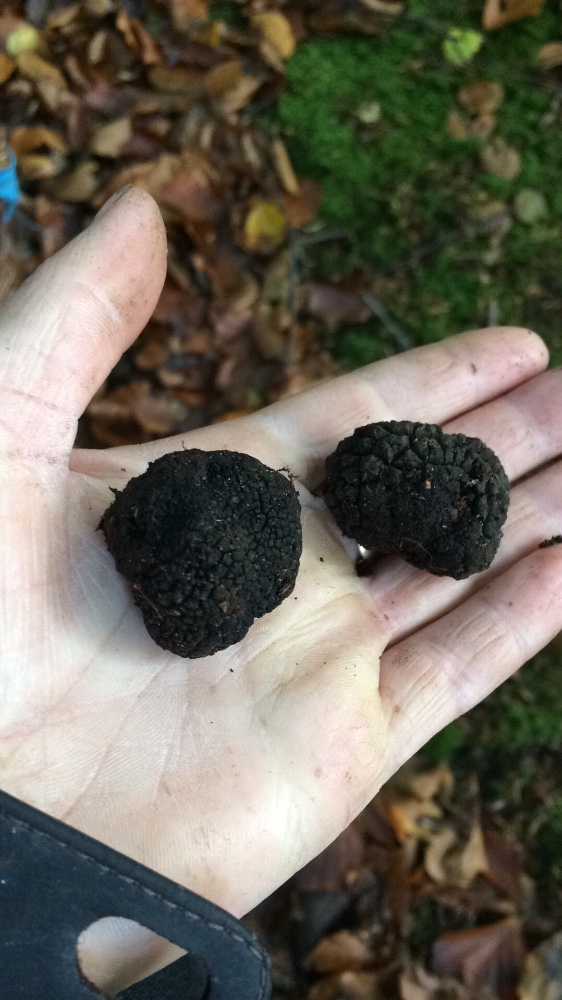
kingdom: Fungi
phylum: Ascomycota
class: Pezizomycetes
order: Pezizales
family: Tuberaceae
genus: Tuber
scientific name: Tuber aestivum
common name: sommer-trøffel
